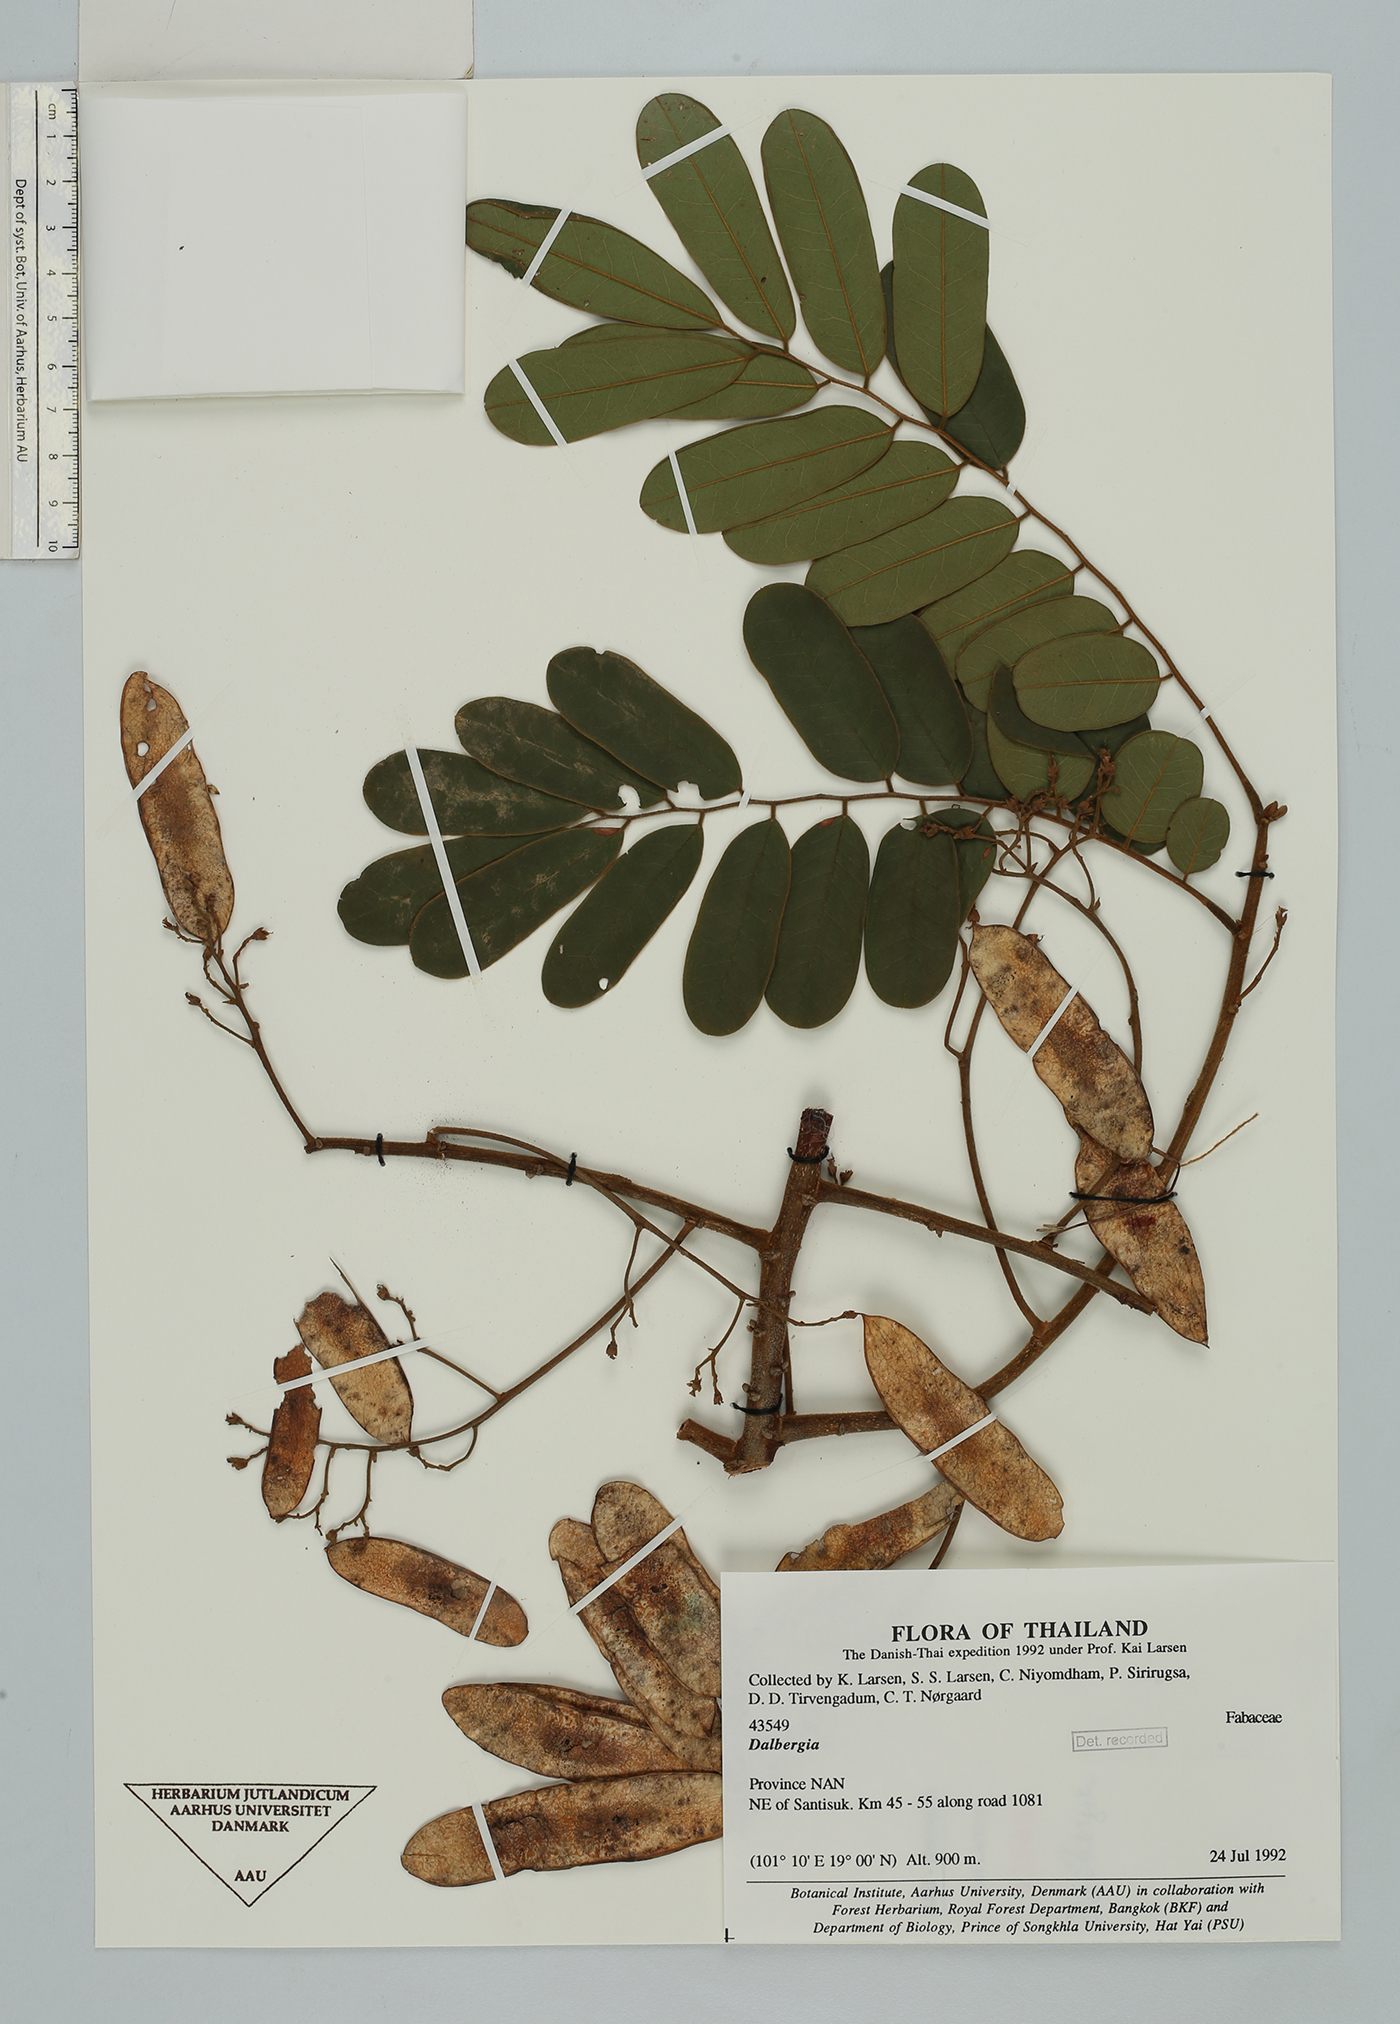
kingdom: Plantae
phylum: Tracheophyta
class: Magnoliopsida
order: Fabales
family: Fabaceae
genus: Dalbergia
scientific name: Dalbergia
